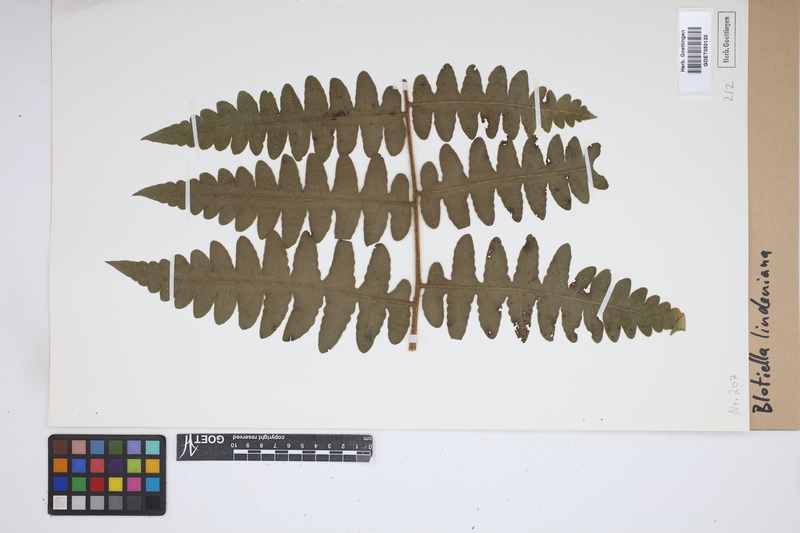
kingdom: Plantae
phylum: Tracheophyta
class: Polypodiopsida
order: Polypodiales
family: Dennstaedtiaceae
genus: Blotiella
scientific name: Blotiella aurita
